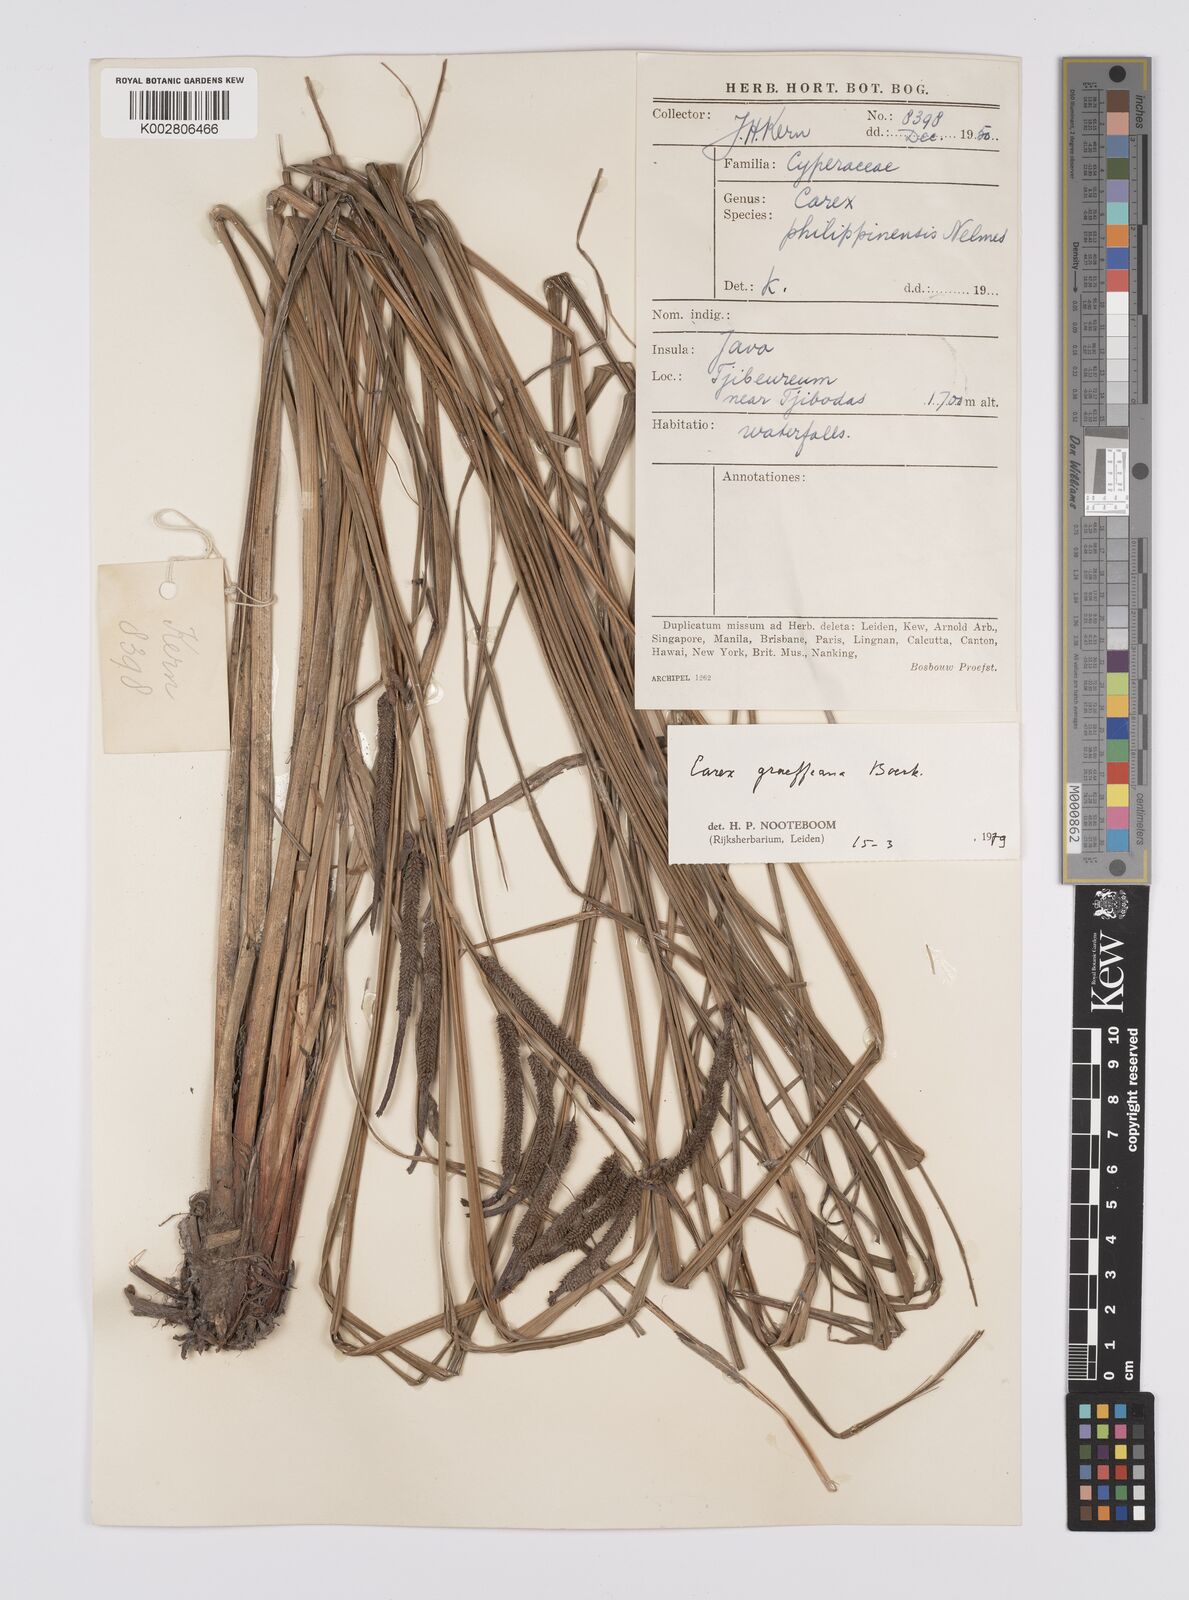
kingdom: Plantae
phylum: Tracheophyta
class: Liliopsida
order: Poales
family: Cyperaceae
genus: Carex
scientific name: Carex graeffeana
